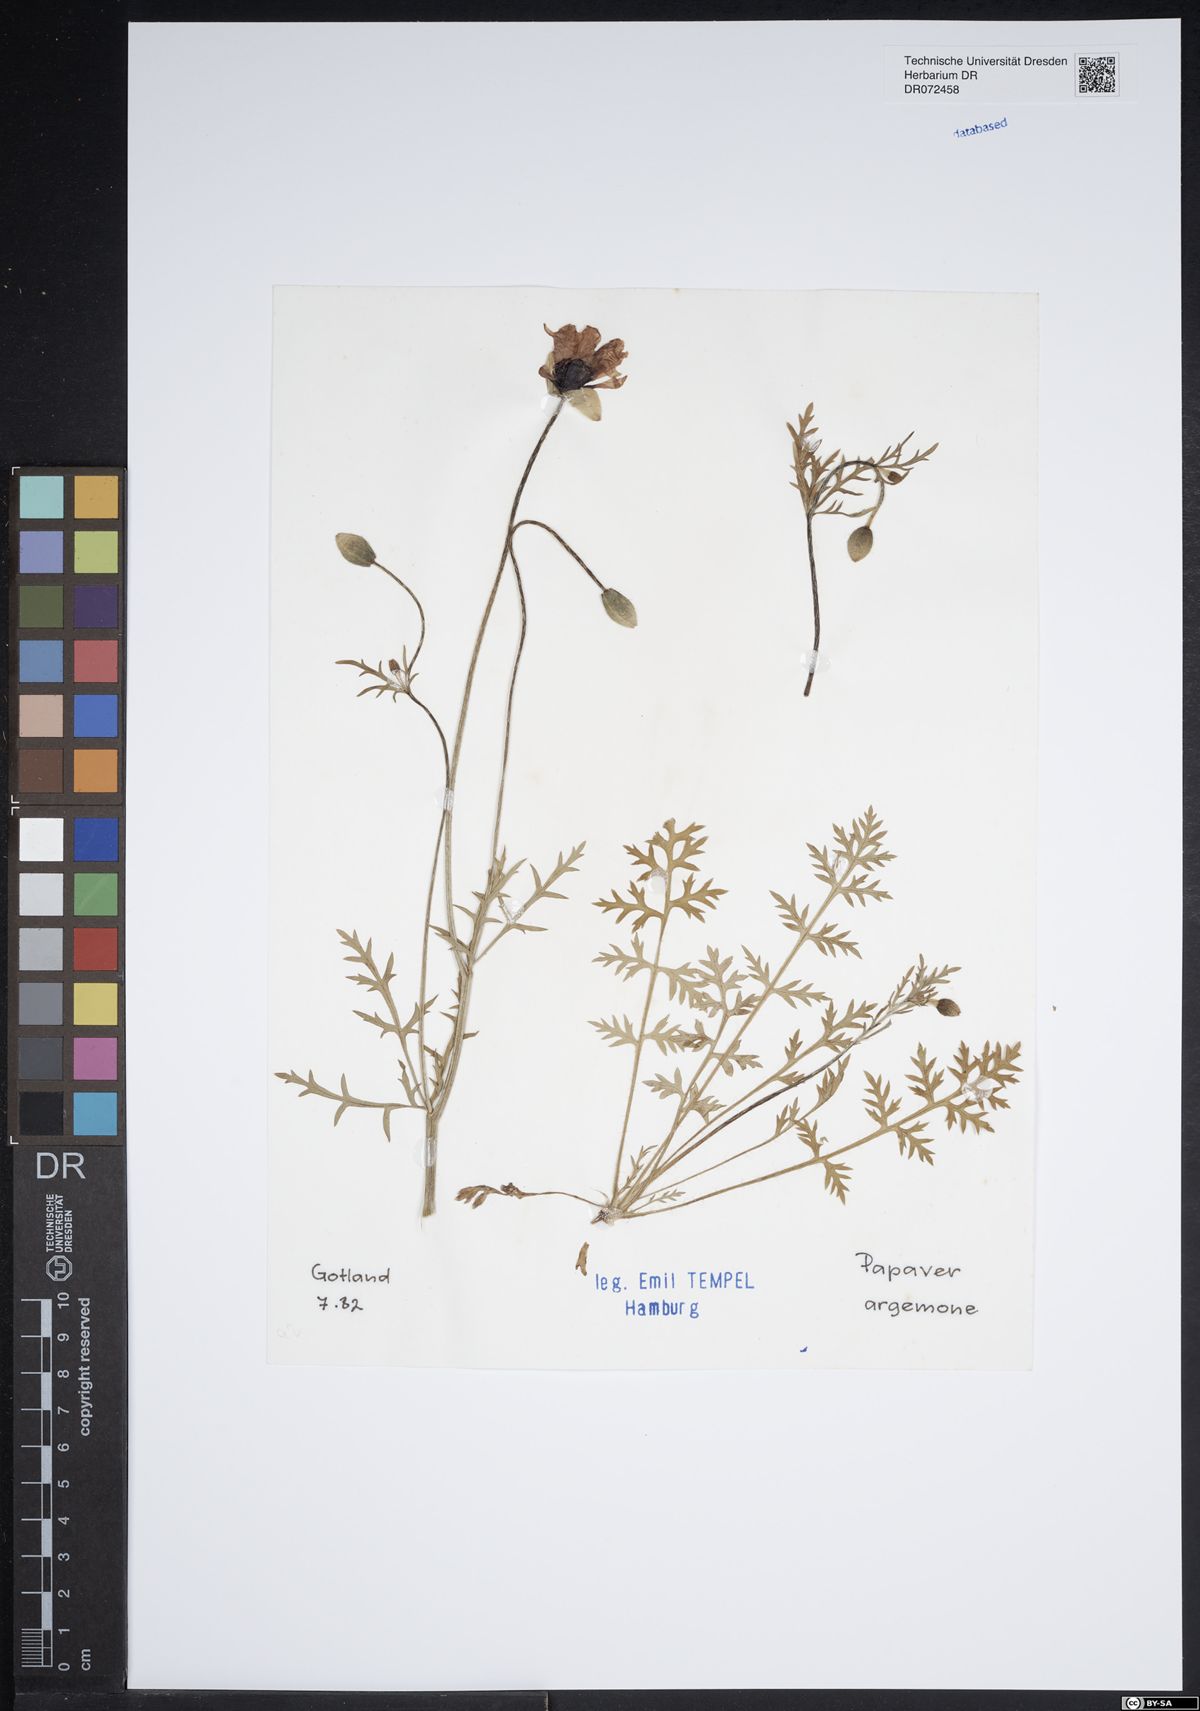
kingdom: Plantae
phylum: Tracheophyta
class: Magnoliopsida
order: Ranunculales
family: Papaveraceae
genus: Roemeria
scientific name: Roemeria argemone
